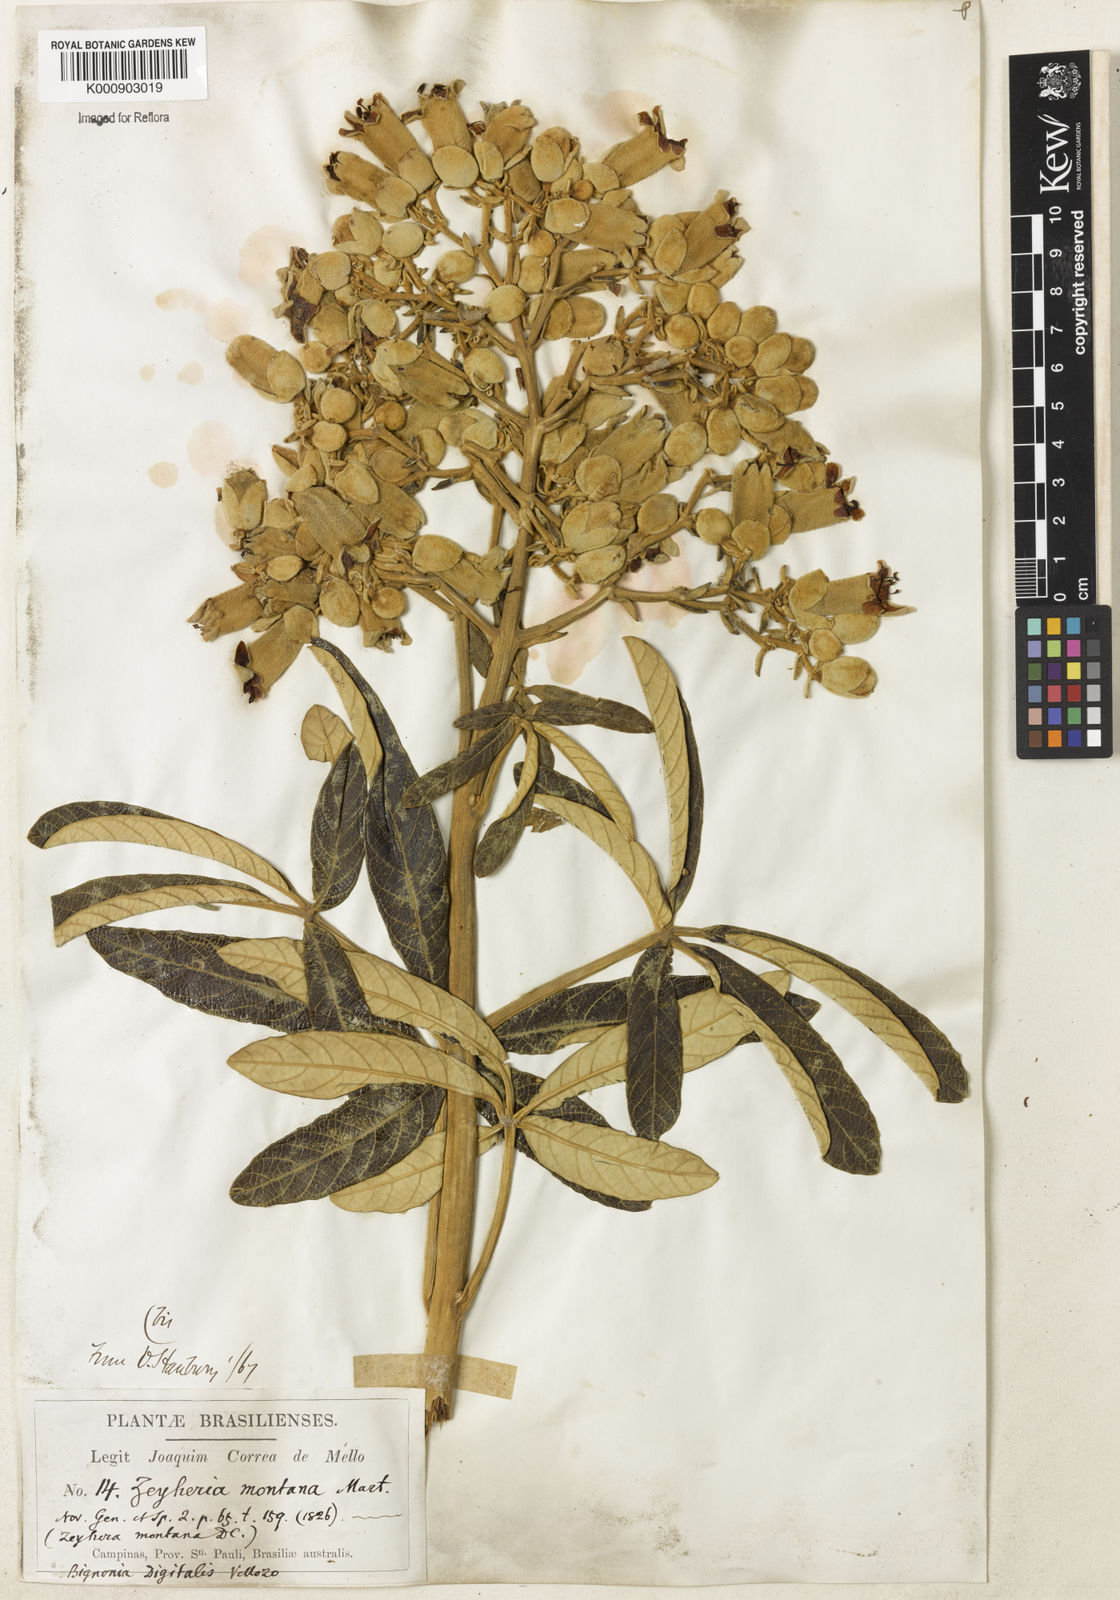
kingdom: Plantae
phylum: Tracheophyta
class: Magnoliopsida
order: Lamiales
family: Bignoniaceae
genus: Zeyheria
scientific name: Zeyheria montana
